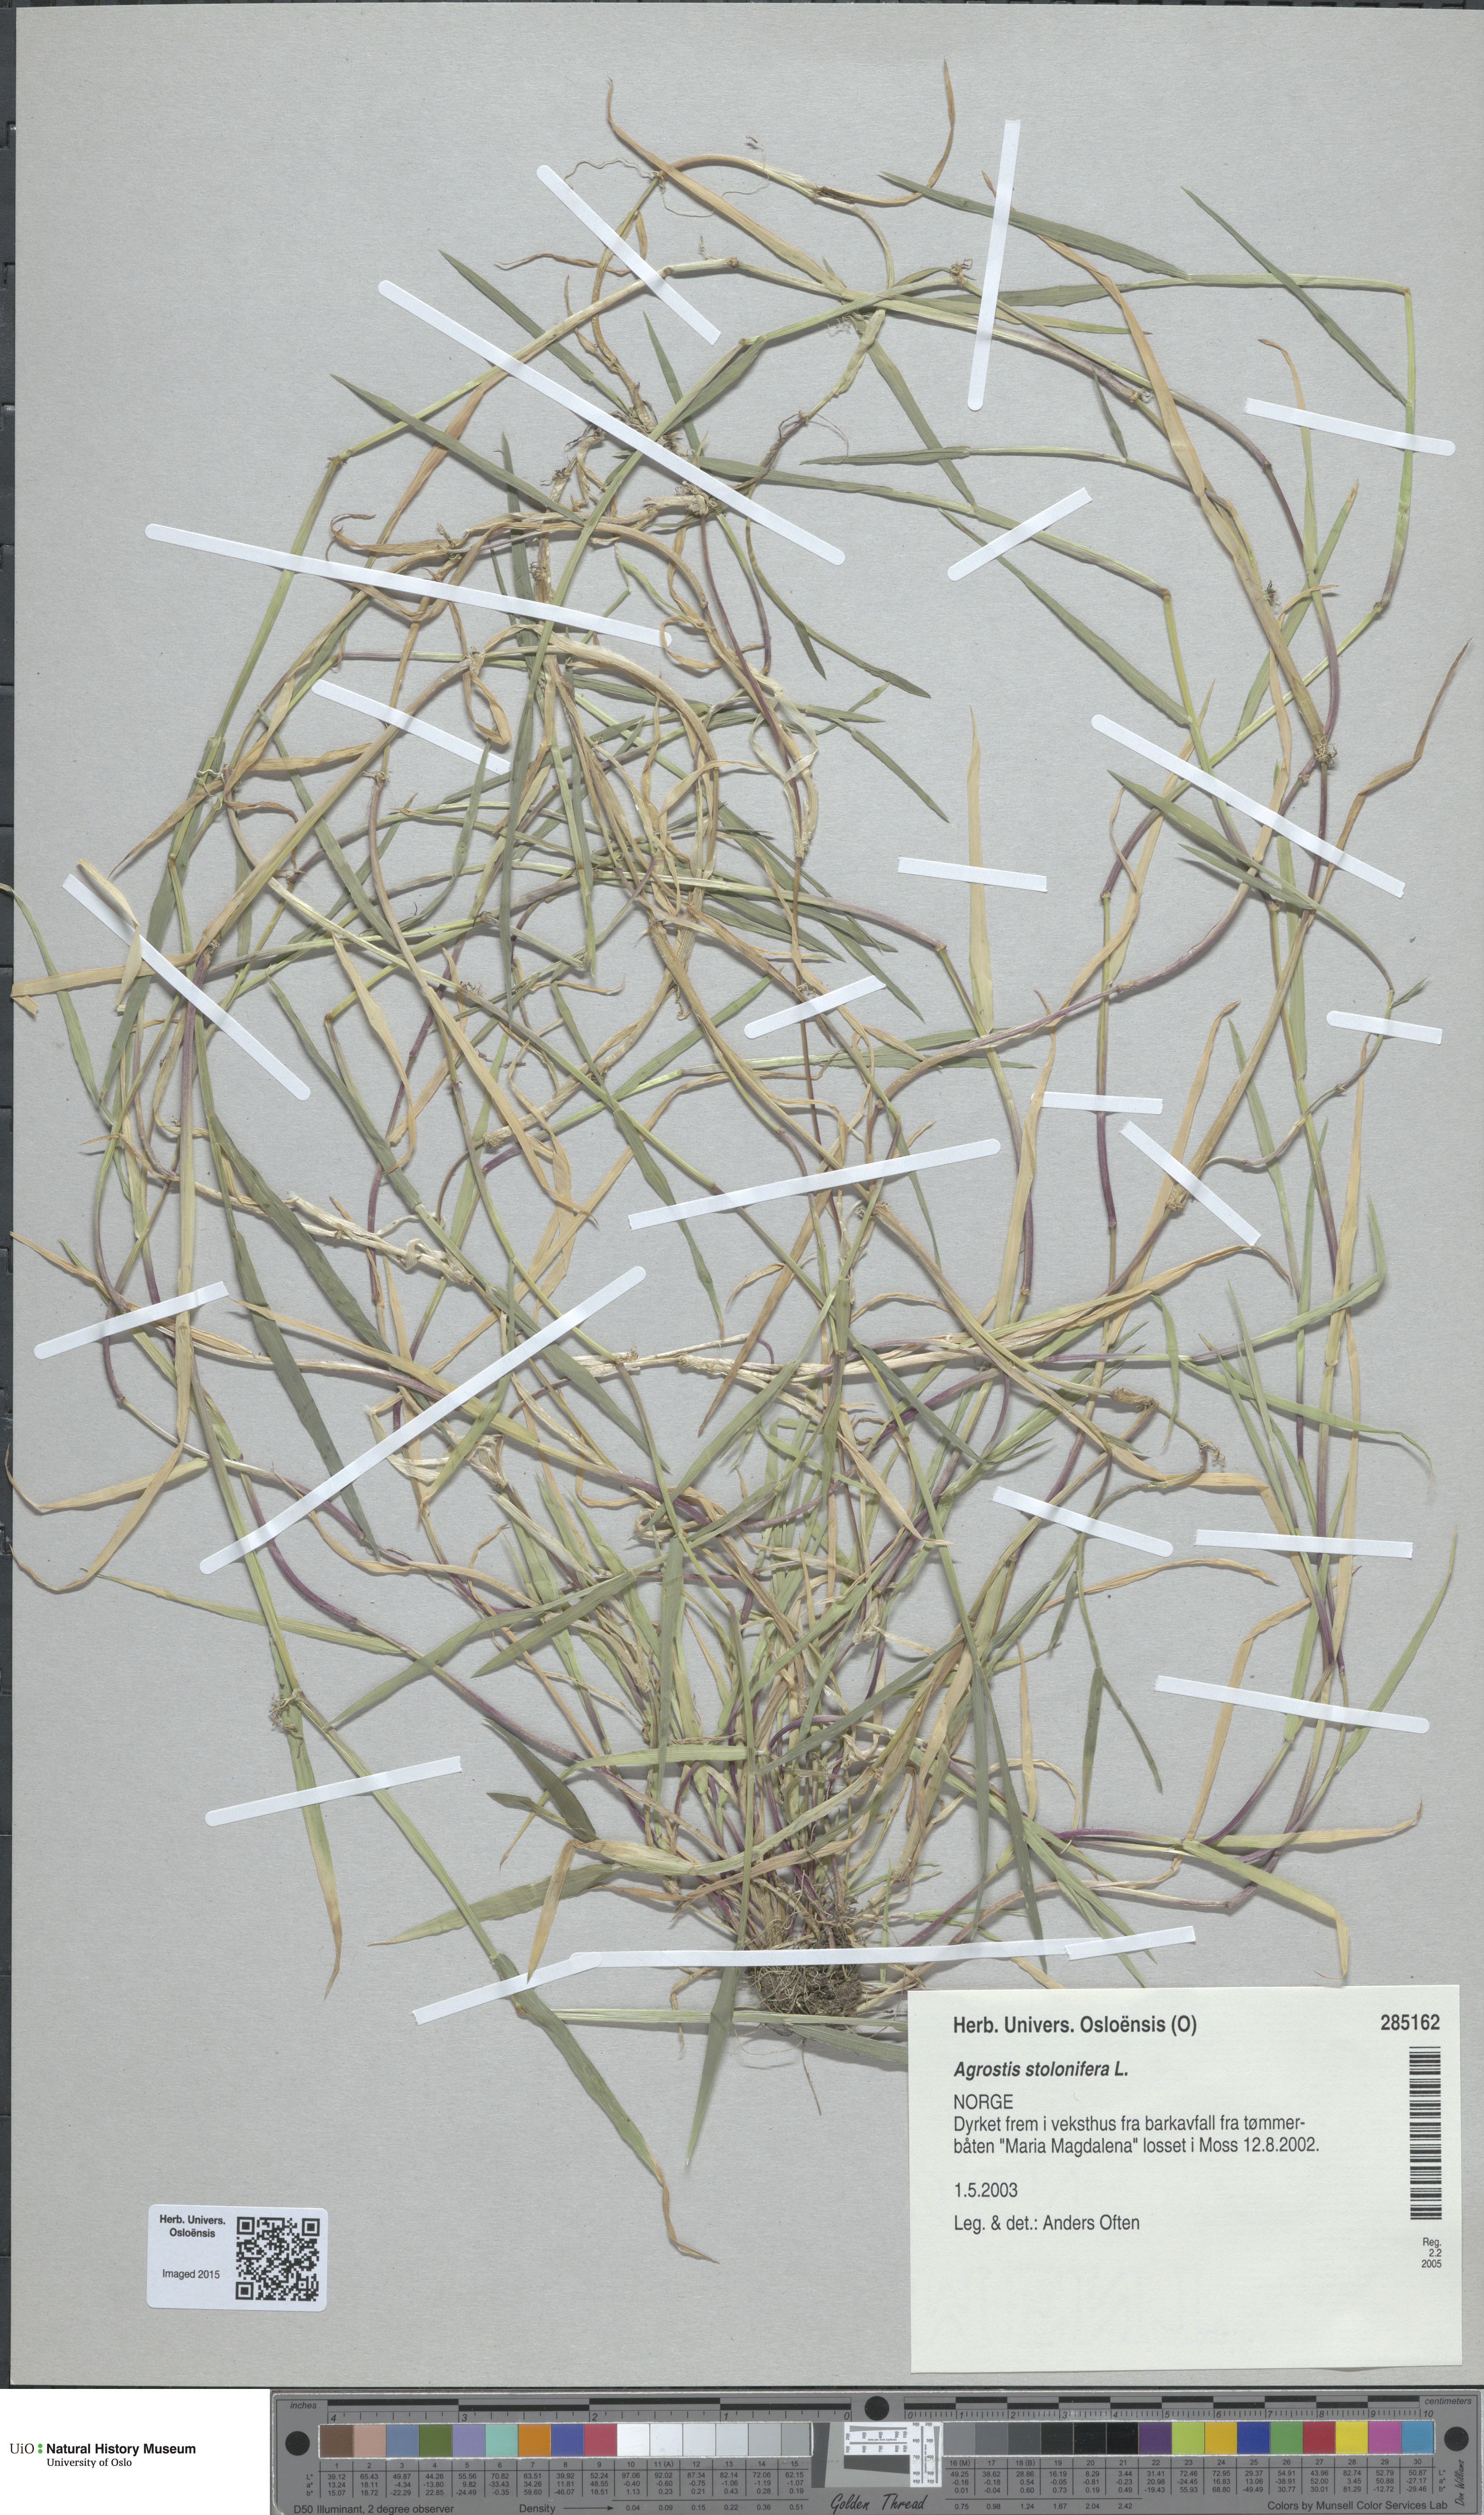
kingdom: Plantae
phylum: Tracheophyta
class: Liliopsida
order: Poales
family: Poaceae
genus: Agrostis
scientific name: Agrostis stolonifera
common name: Creeping bentgrass
